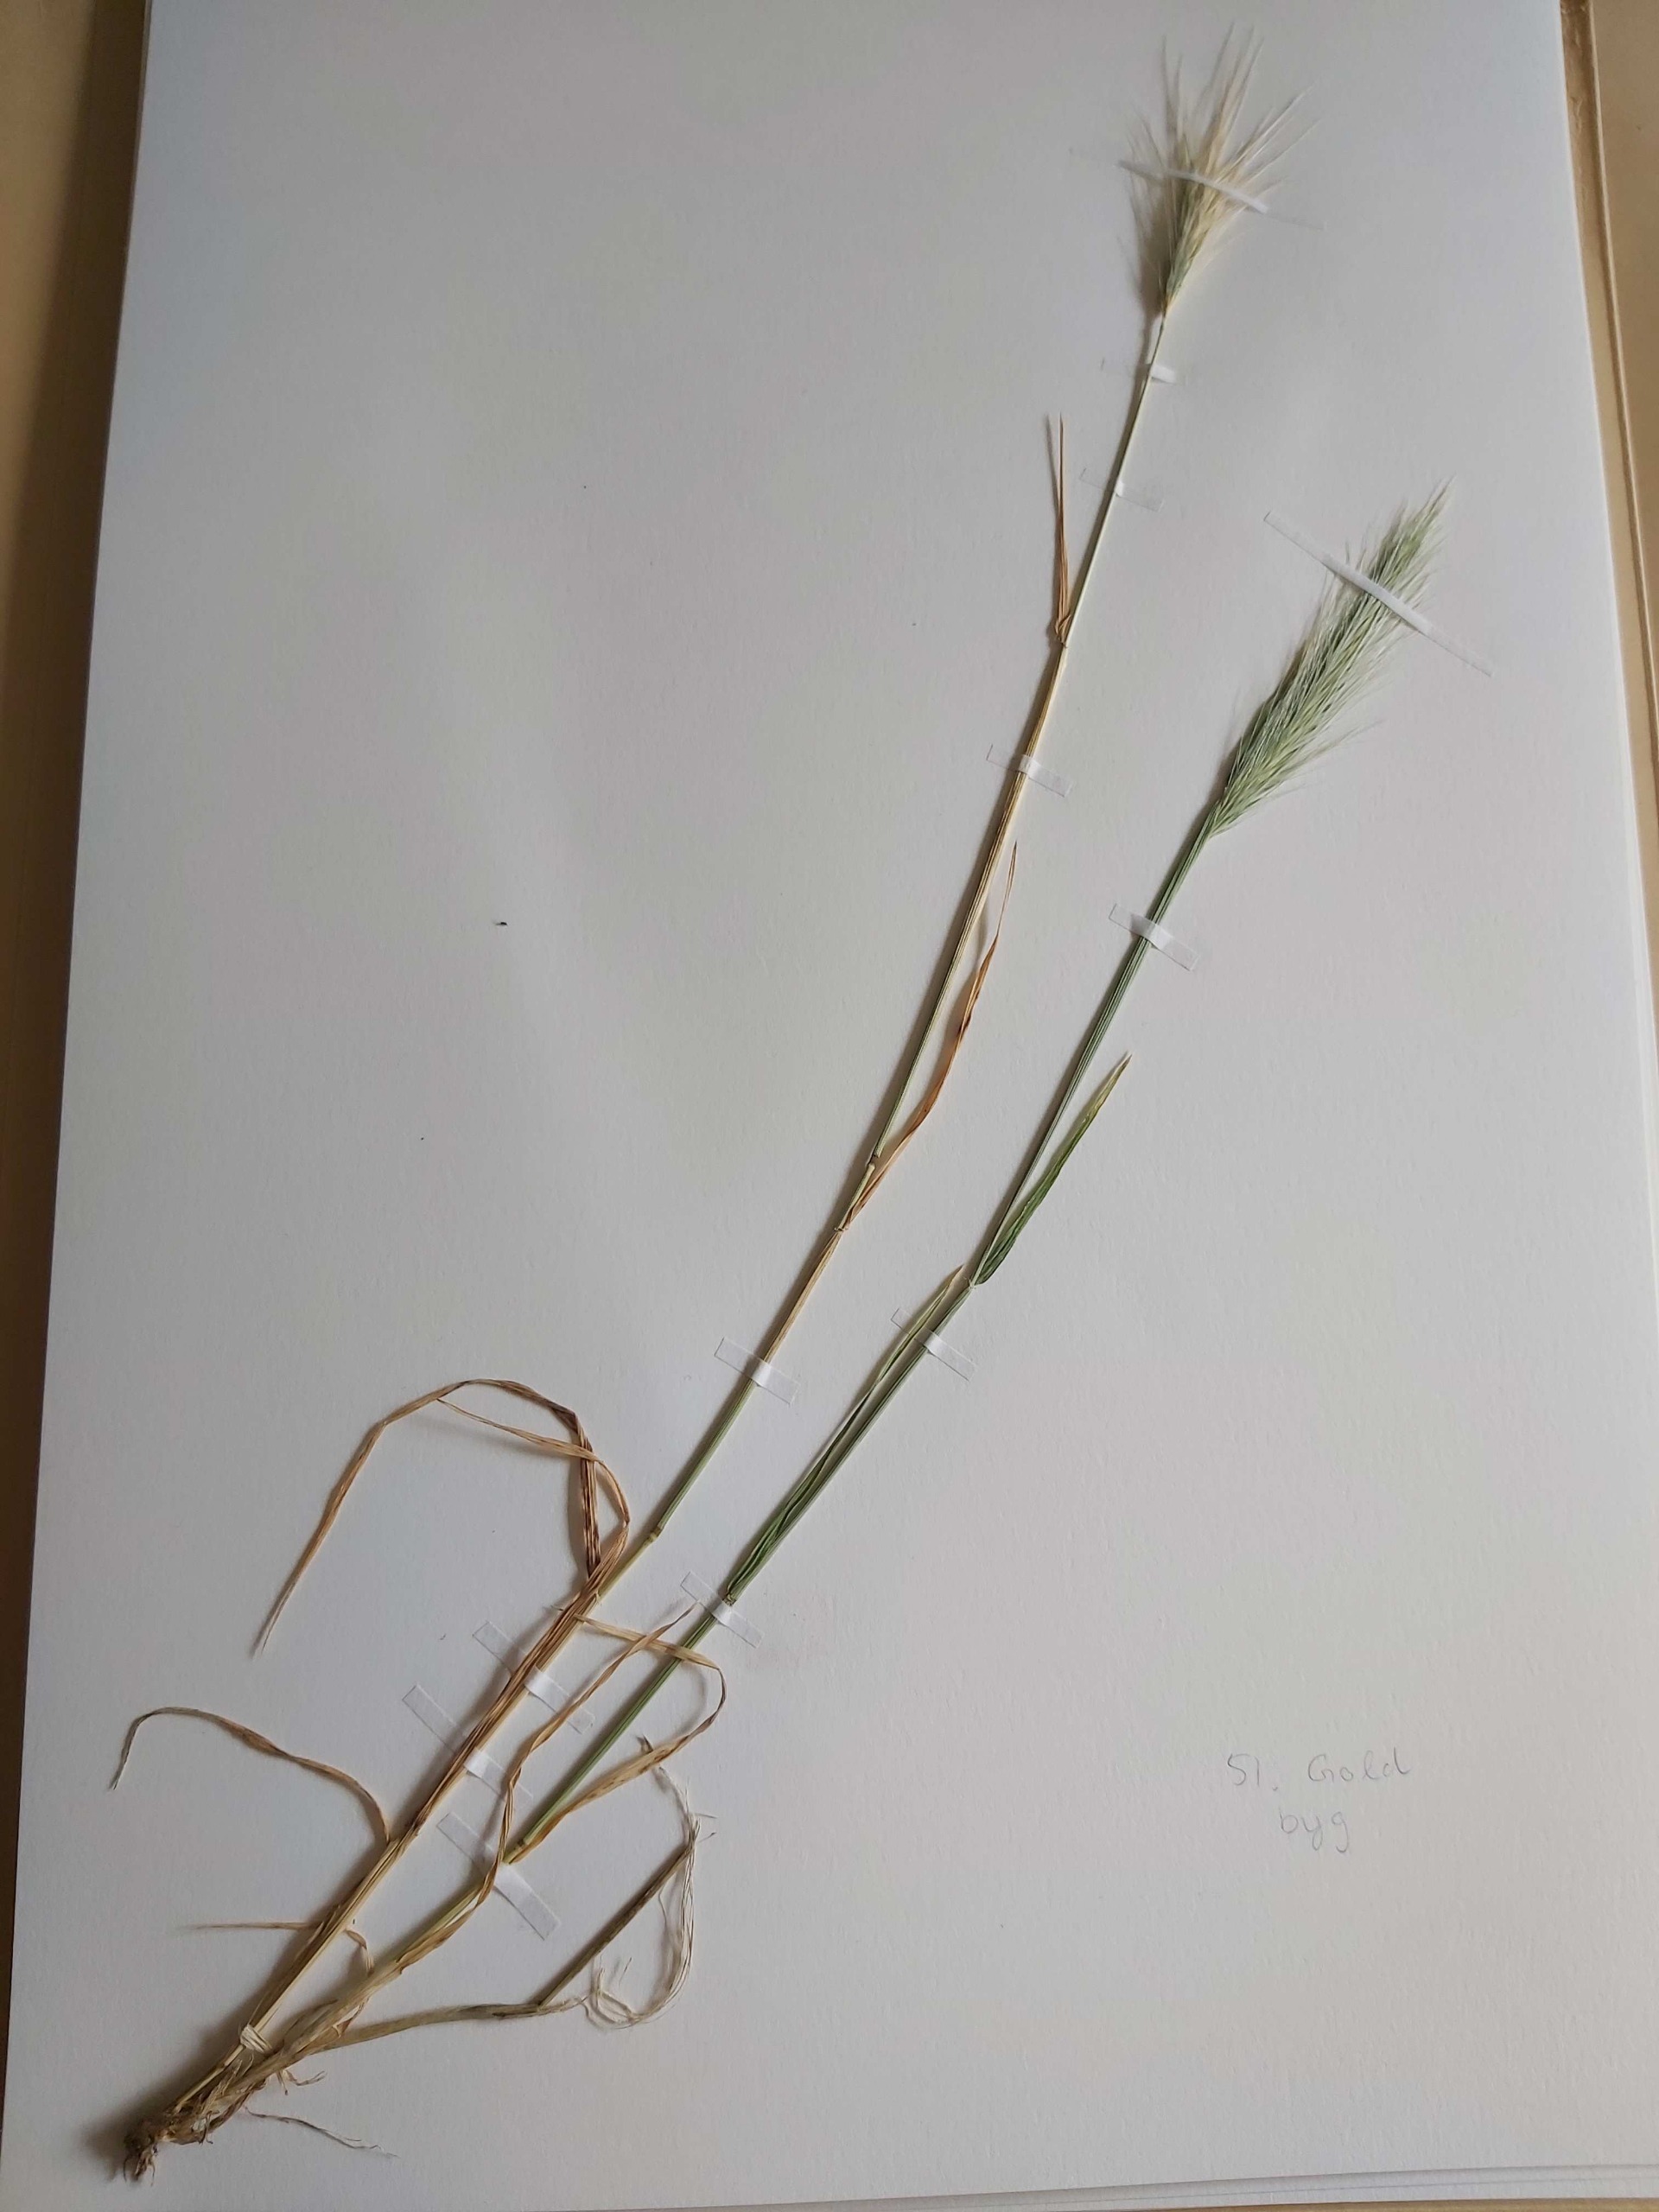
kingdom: Plantae
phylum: Tracheophyta
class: Liliopsida
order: Poales
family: Poaceae
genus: Hordeum
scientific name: Hordeum murinum
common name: Gold byg
